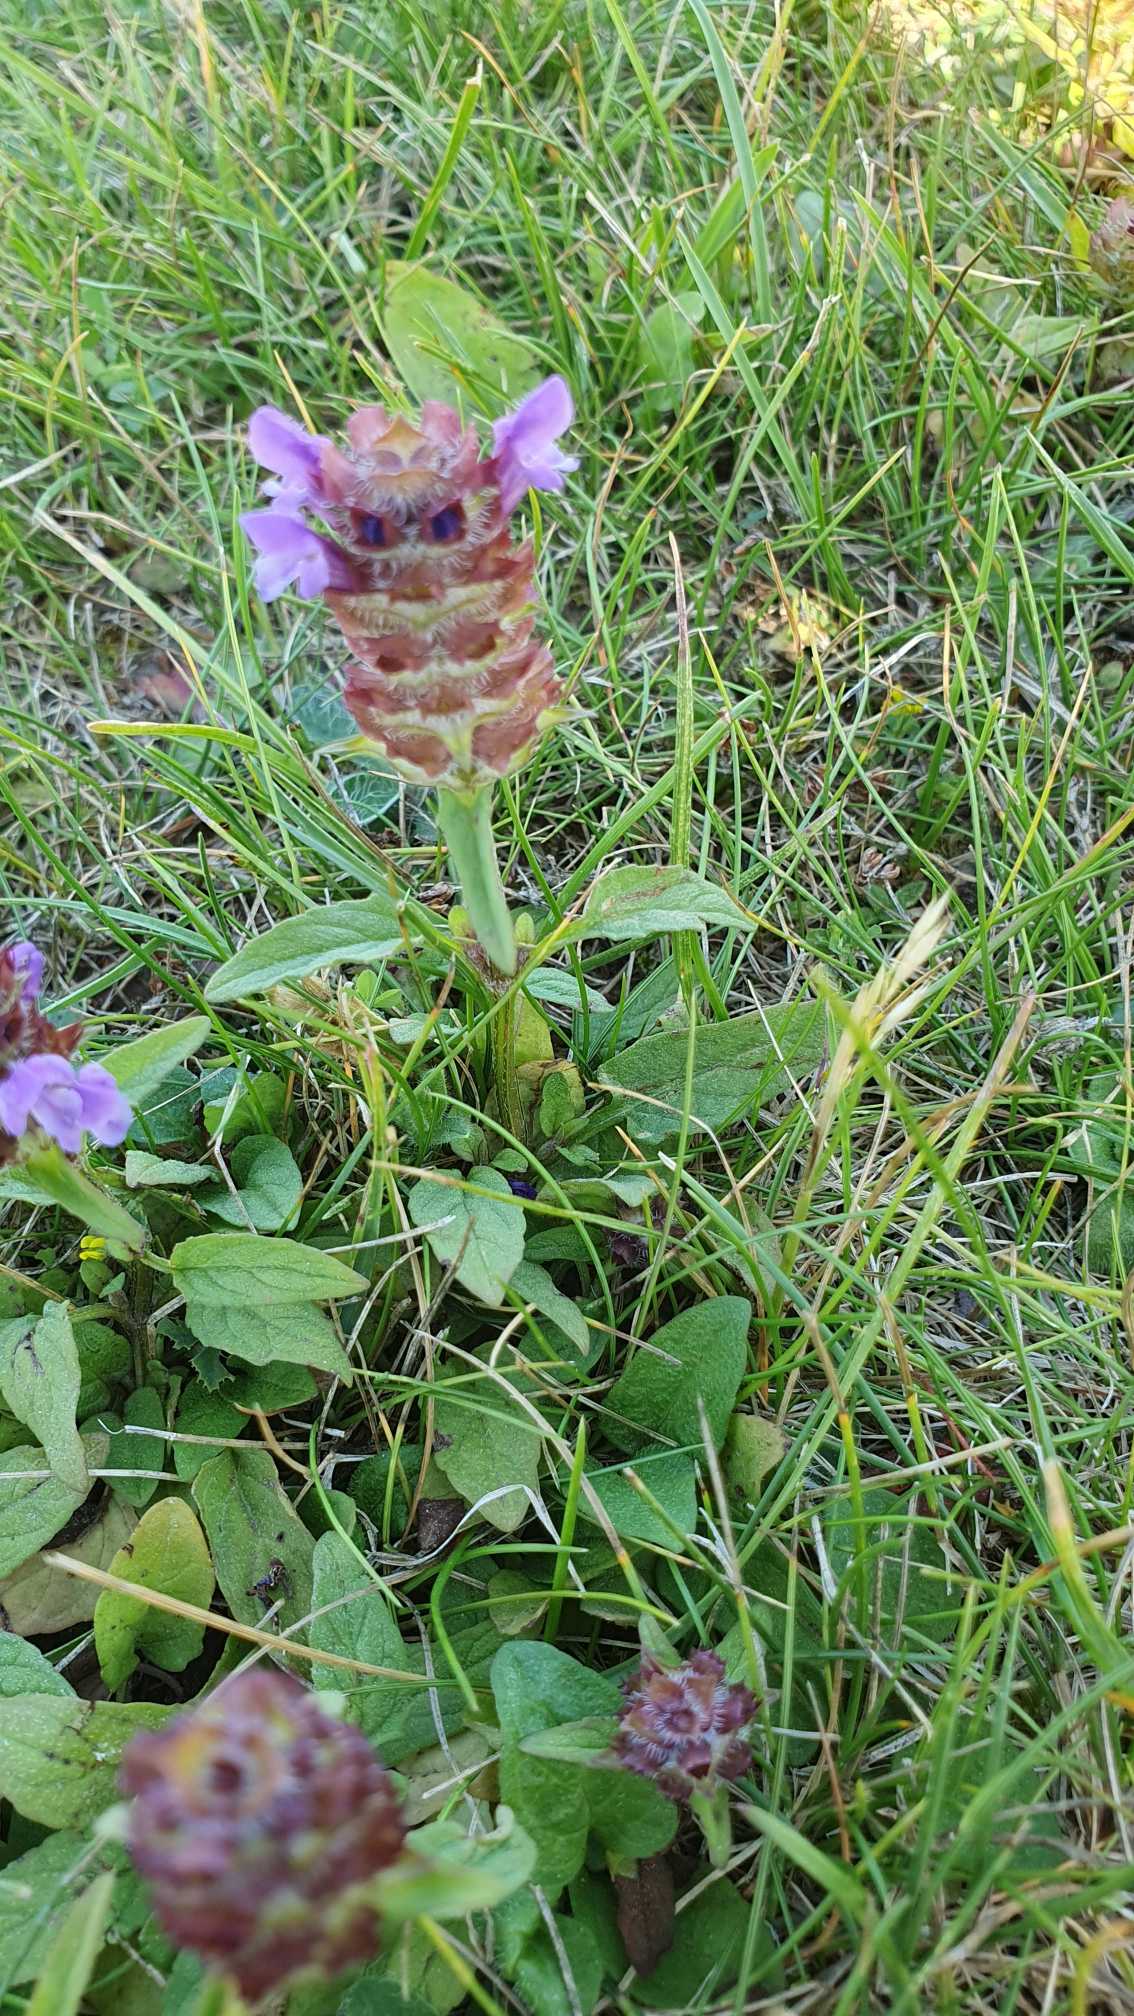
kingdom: Plantae
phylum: Tracheophyta
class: Magnoliopsida
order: Lamiales
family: Lamiaceae
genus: Prunella
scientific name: Prunella vulgaris
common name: Almindelig brunelle
